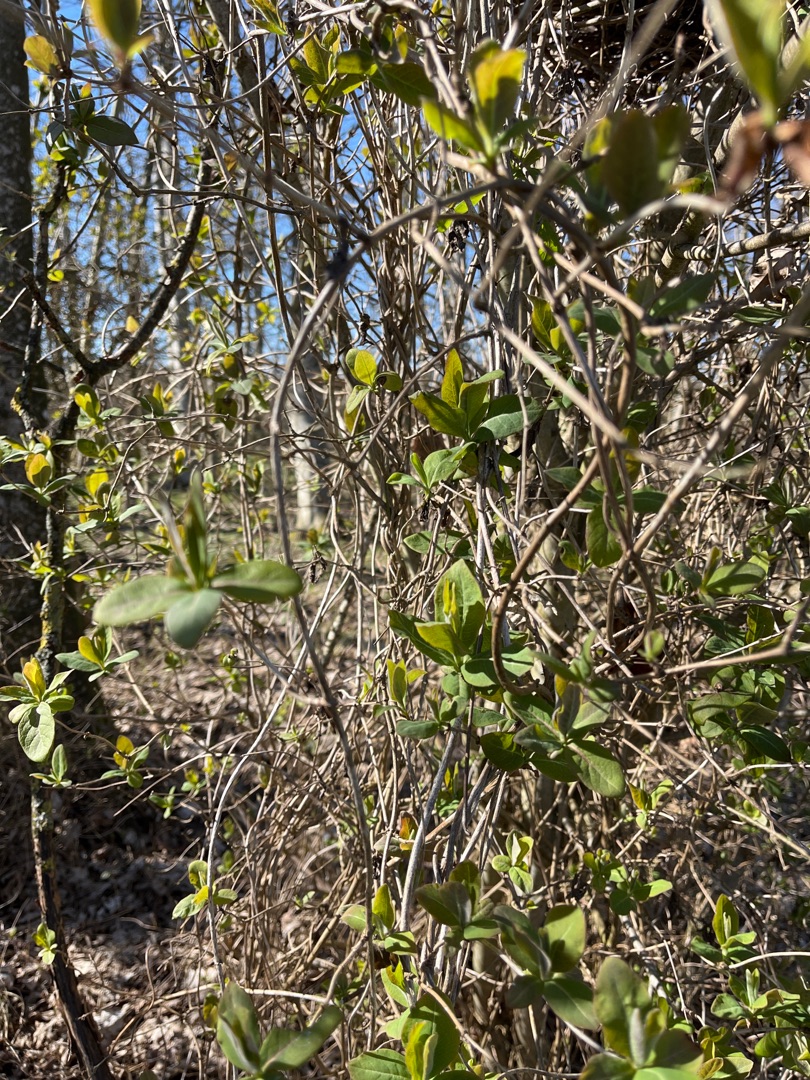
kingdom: Plantae
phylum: Tracheophyta
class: Magnoliopsida
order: Dipsacales
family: Caprifoliaceae
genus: Lonicera
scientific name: Lonicera periclymenum
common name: Almindelig gedeblad
